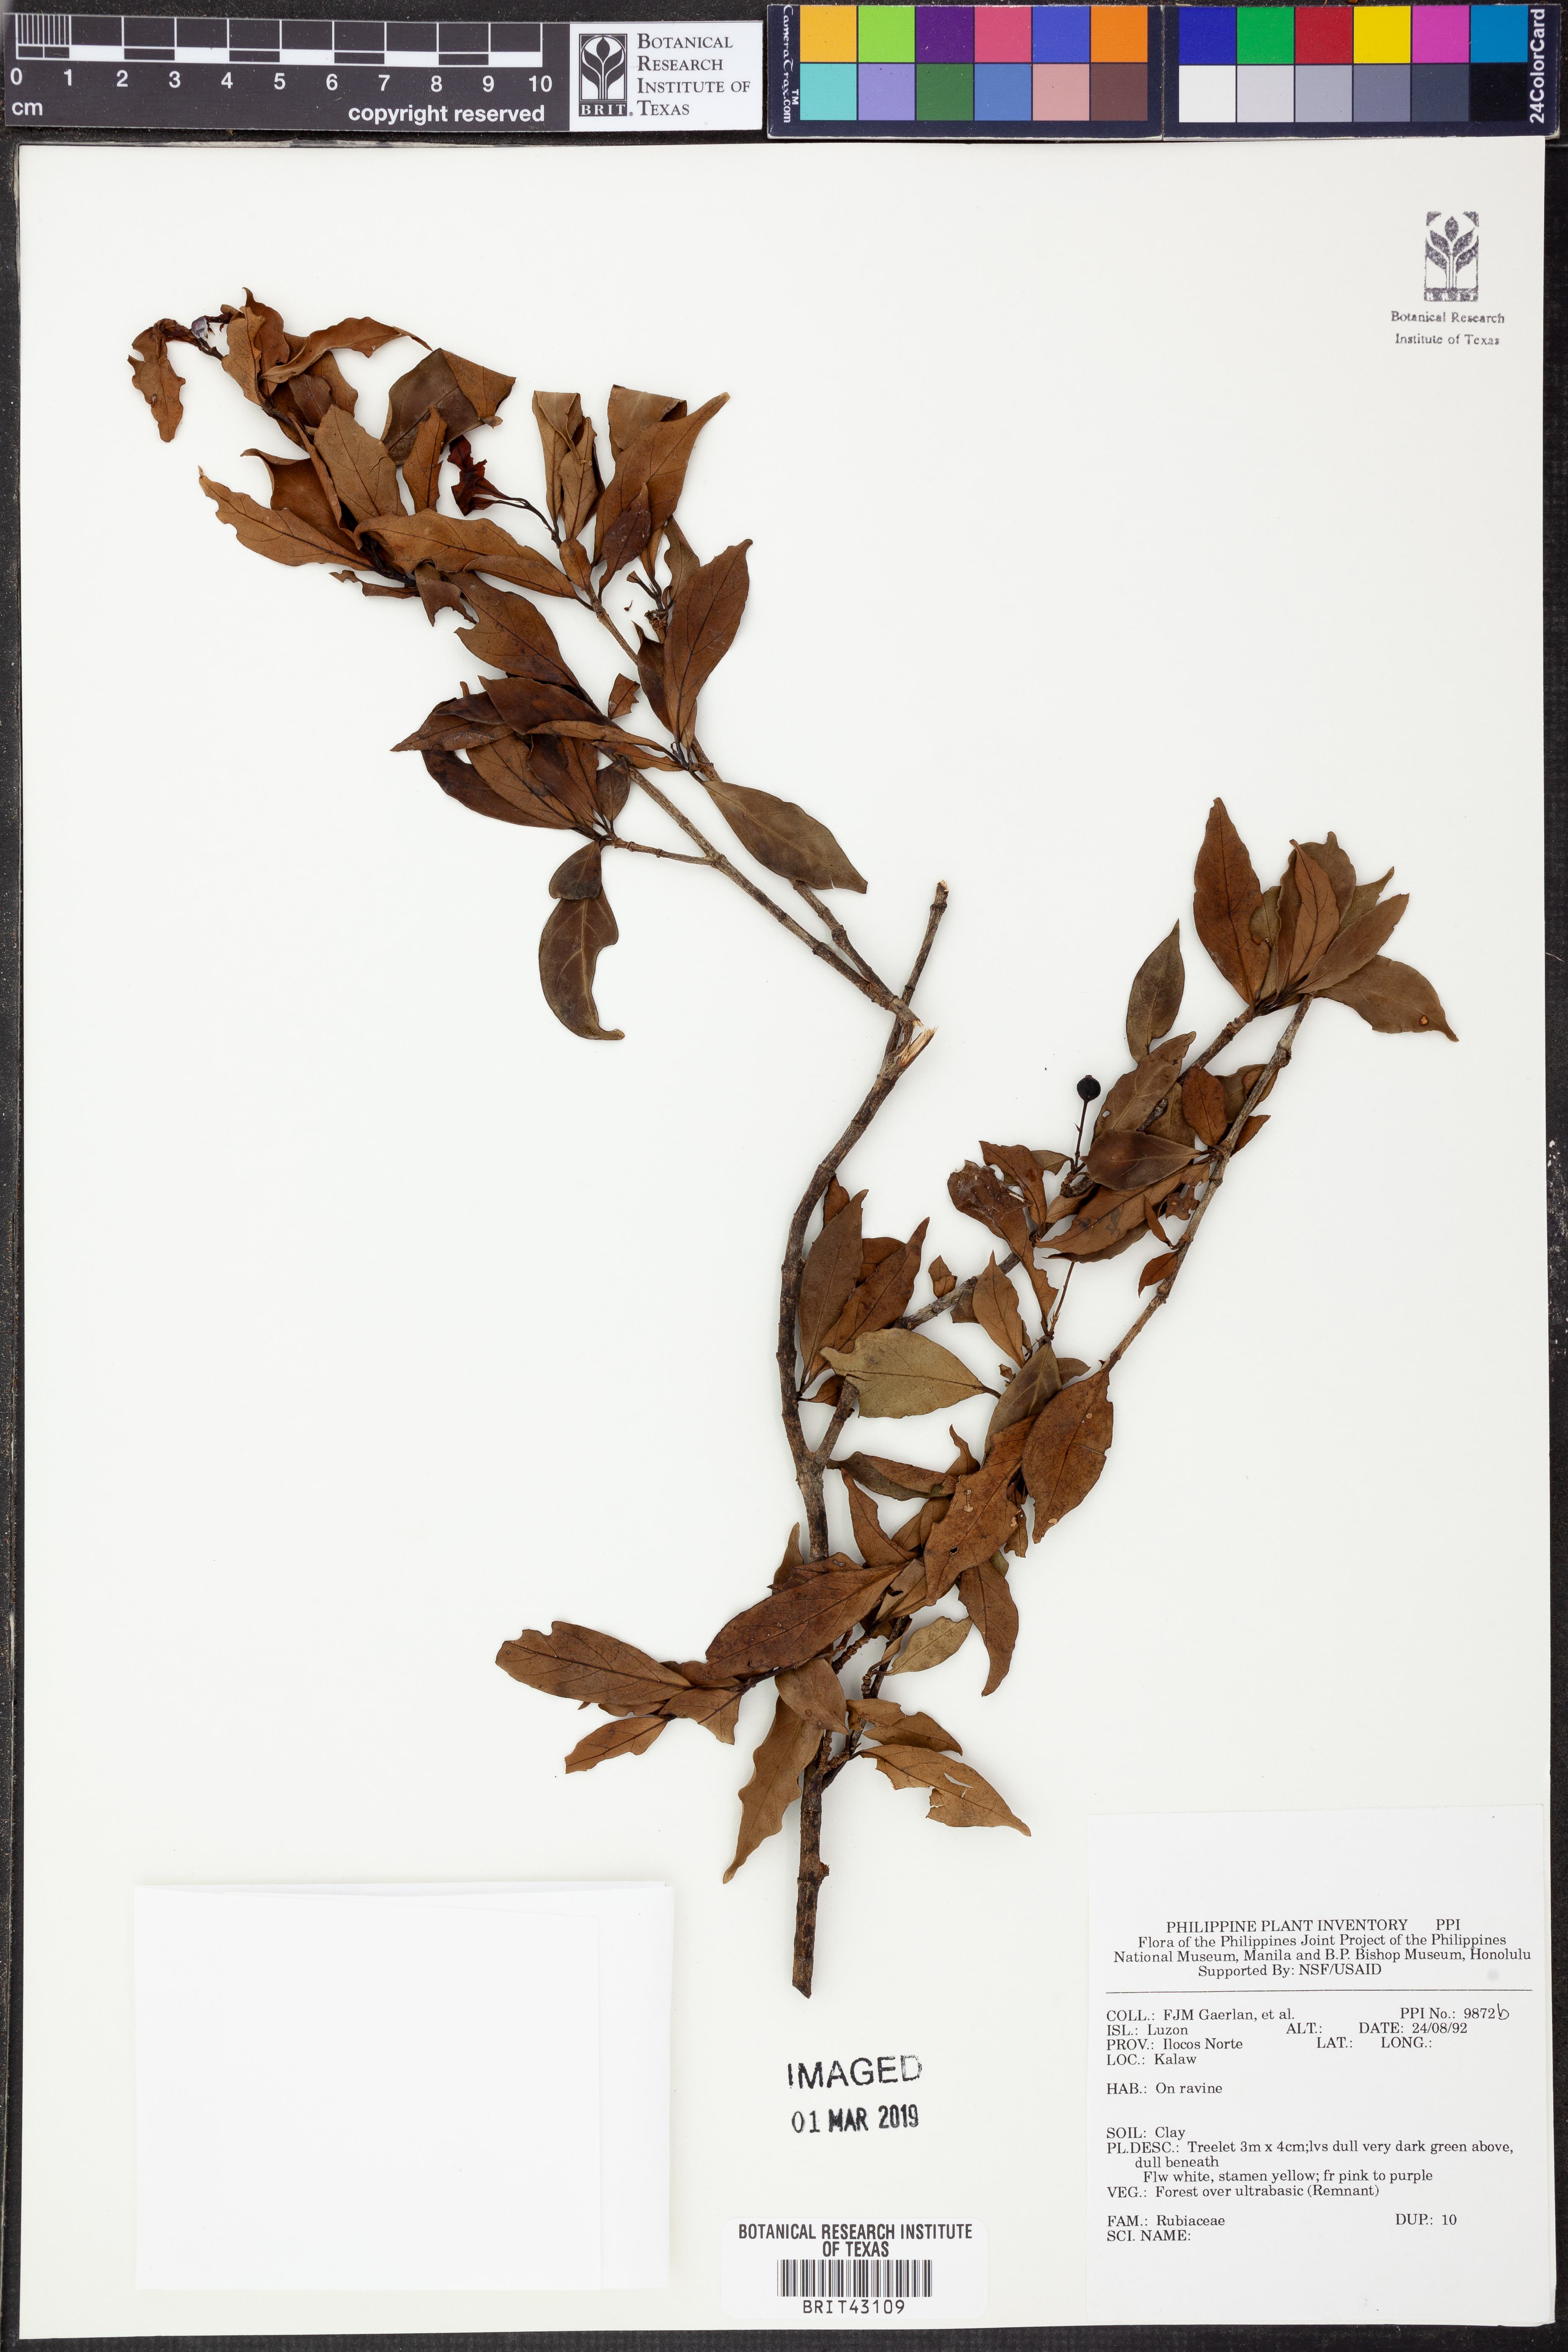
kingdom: Plantae
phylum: Tracheophyta
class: Magnoliopsida
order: Gentianales
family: Rubiaceae
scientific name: Rubiaceae
